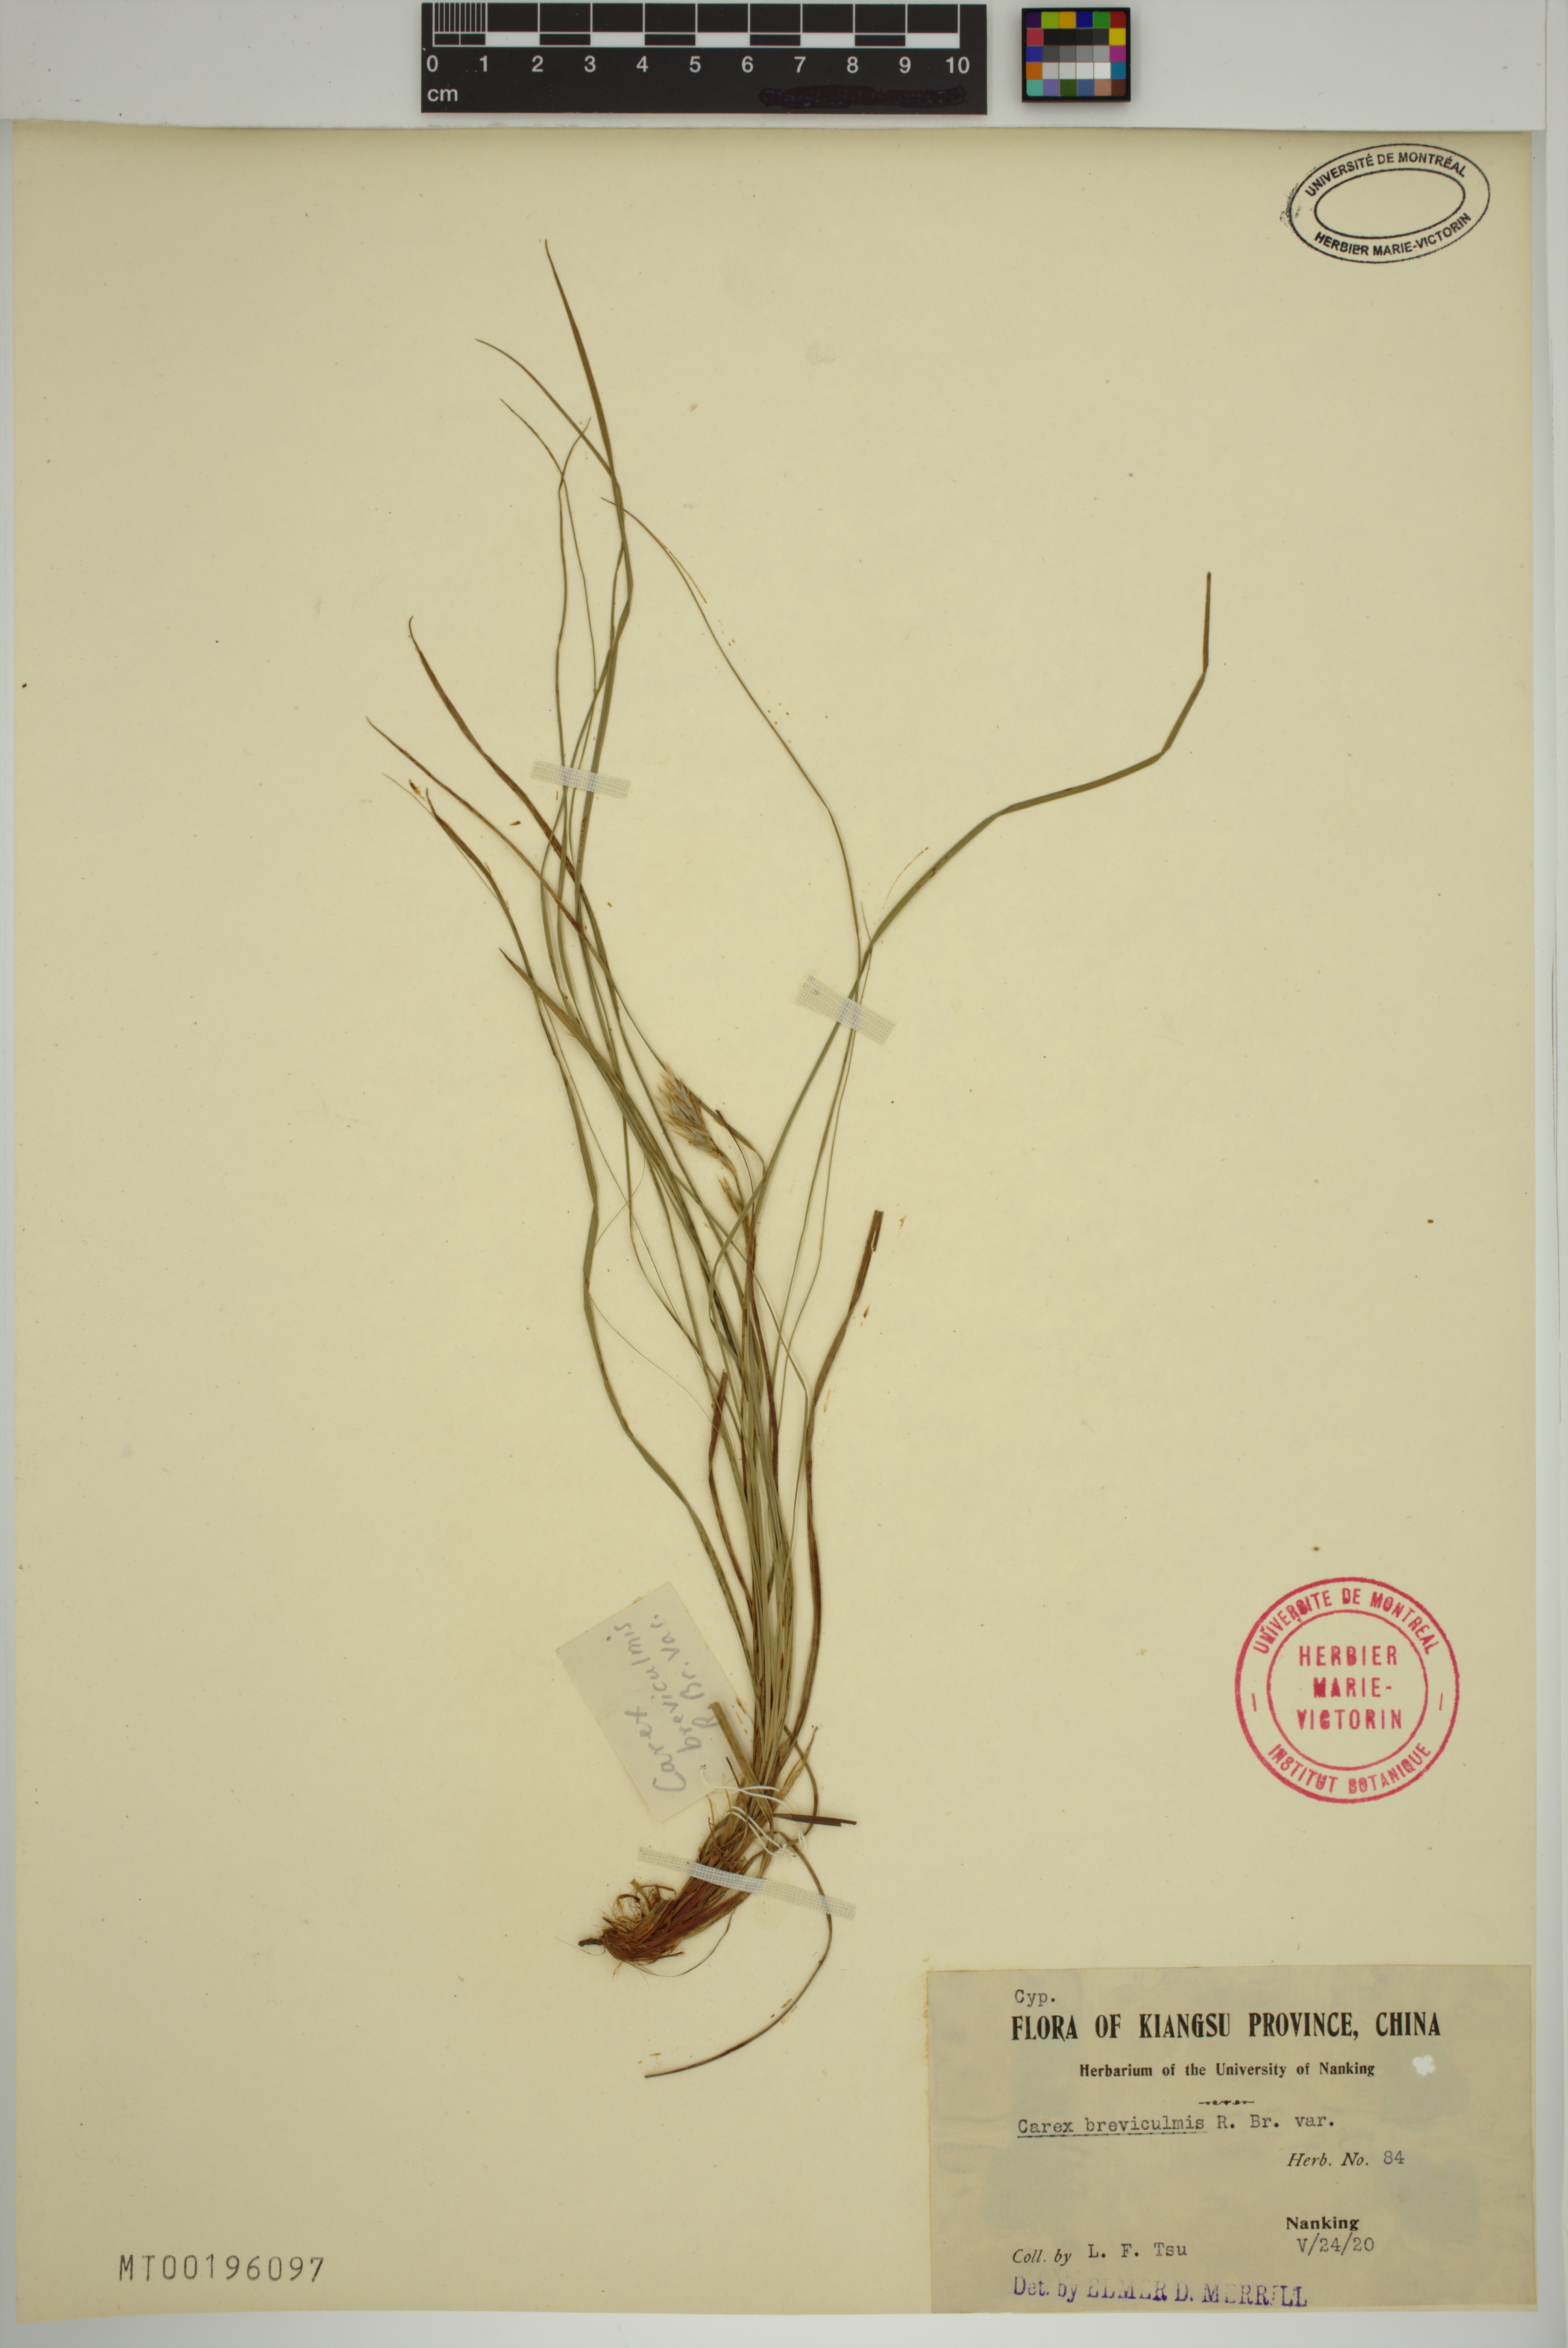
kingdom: Plantae
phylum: Tracheophyta
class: Liliopsida
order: Poales
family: Cyperaceae
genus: Carex
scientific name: Carex breviculmis
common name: Asian shortstem sedge
